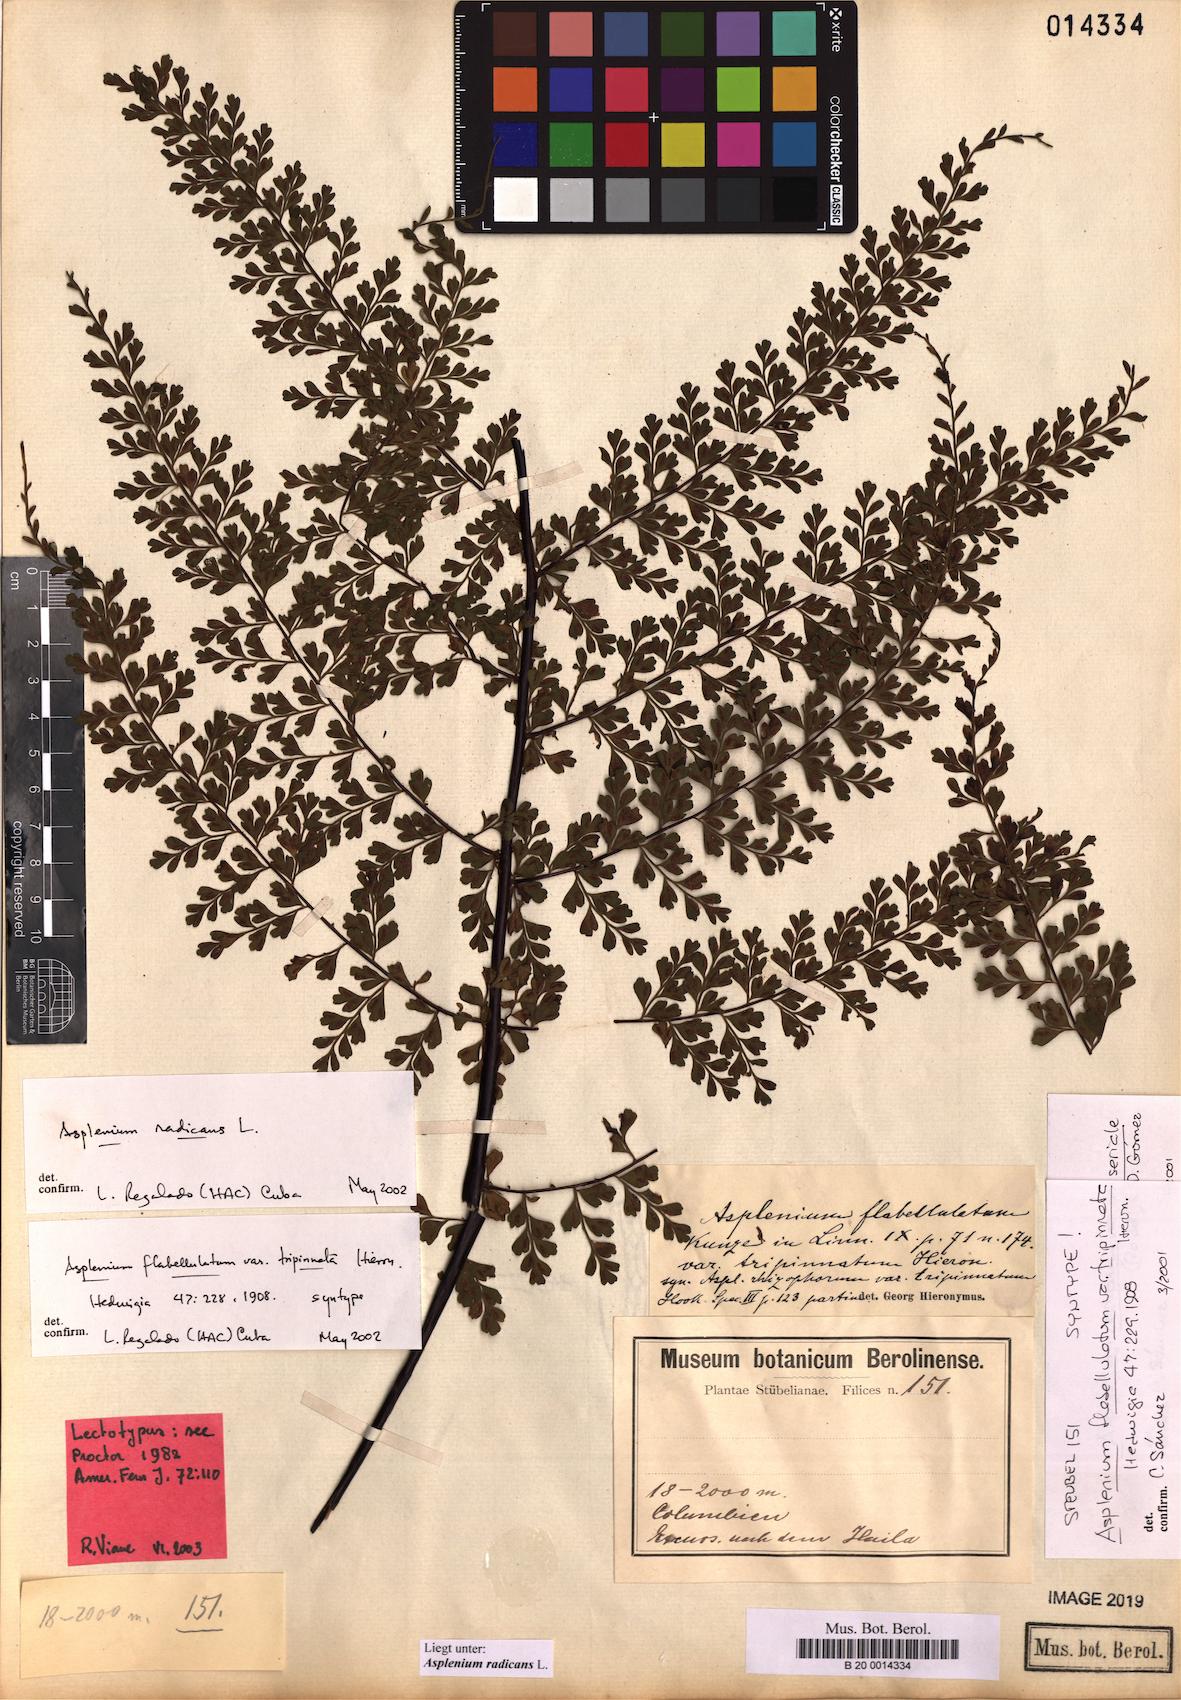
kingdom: Plantae
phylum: Tracheophyta
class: Polypodiopsida
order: Polypodiales
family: Aspleniaceae
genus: Asplenium
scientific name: Asplenium radicans
